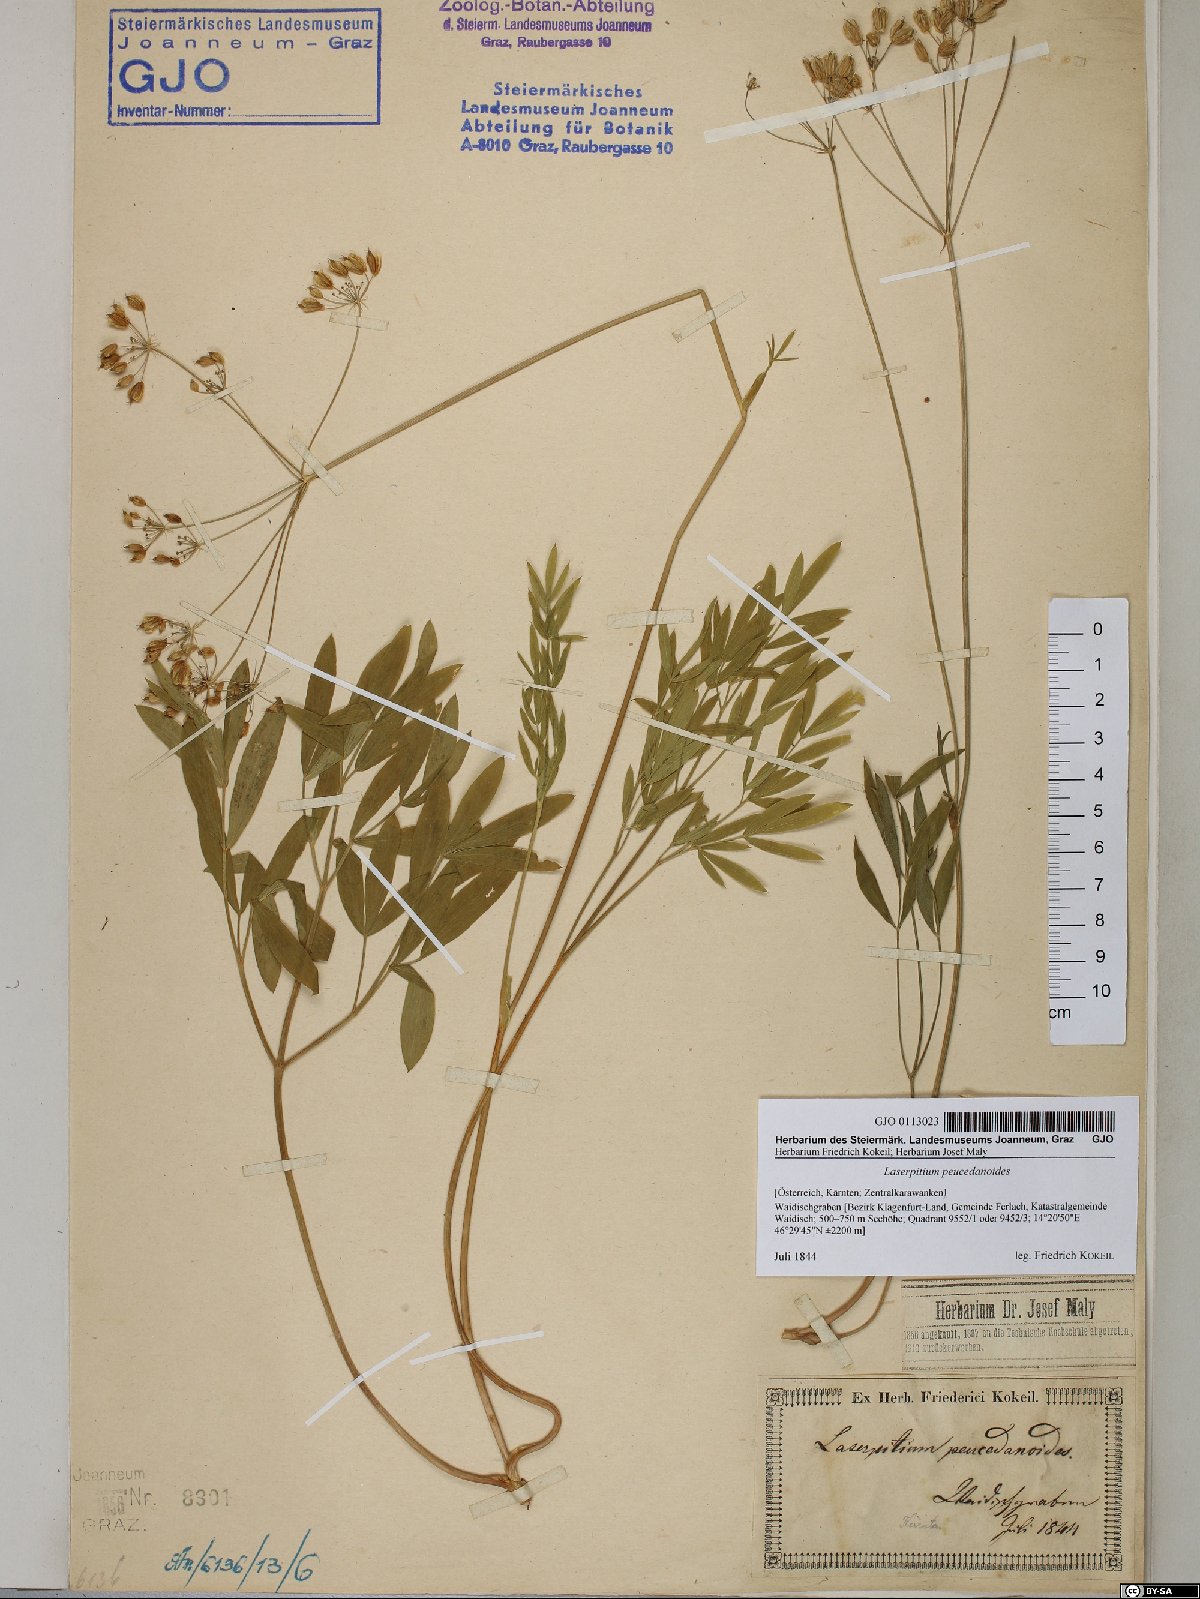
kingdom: Plantae
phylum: Tracheophyta
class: Magnoliopsida
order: Apiales
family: Apiaceae
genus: Laserpitium
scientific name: Laserpitium peucedanoides
